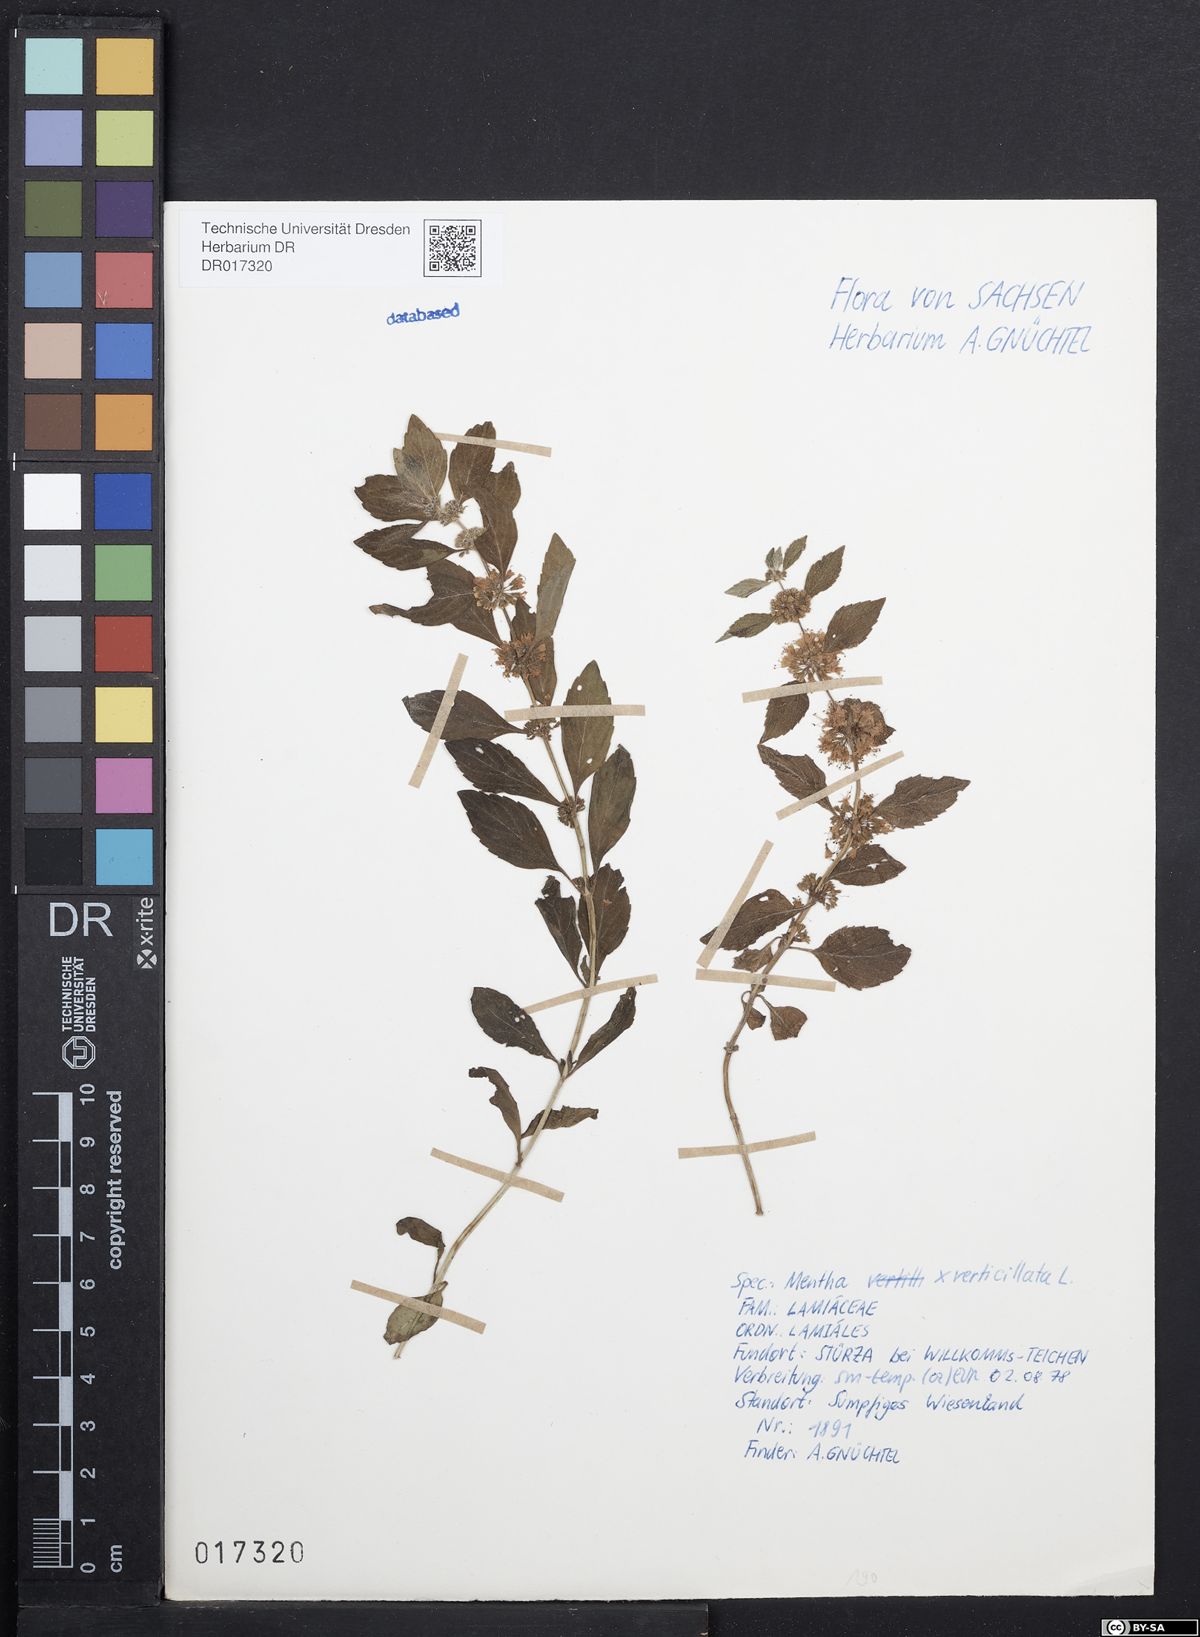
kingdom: Plantae
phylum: Tracheophyta
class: Magnoliopsida
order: Lamiales
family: Lamiaceae
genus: Mentha
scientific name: Mentha verticillata
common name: Mint
